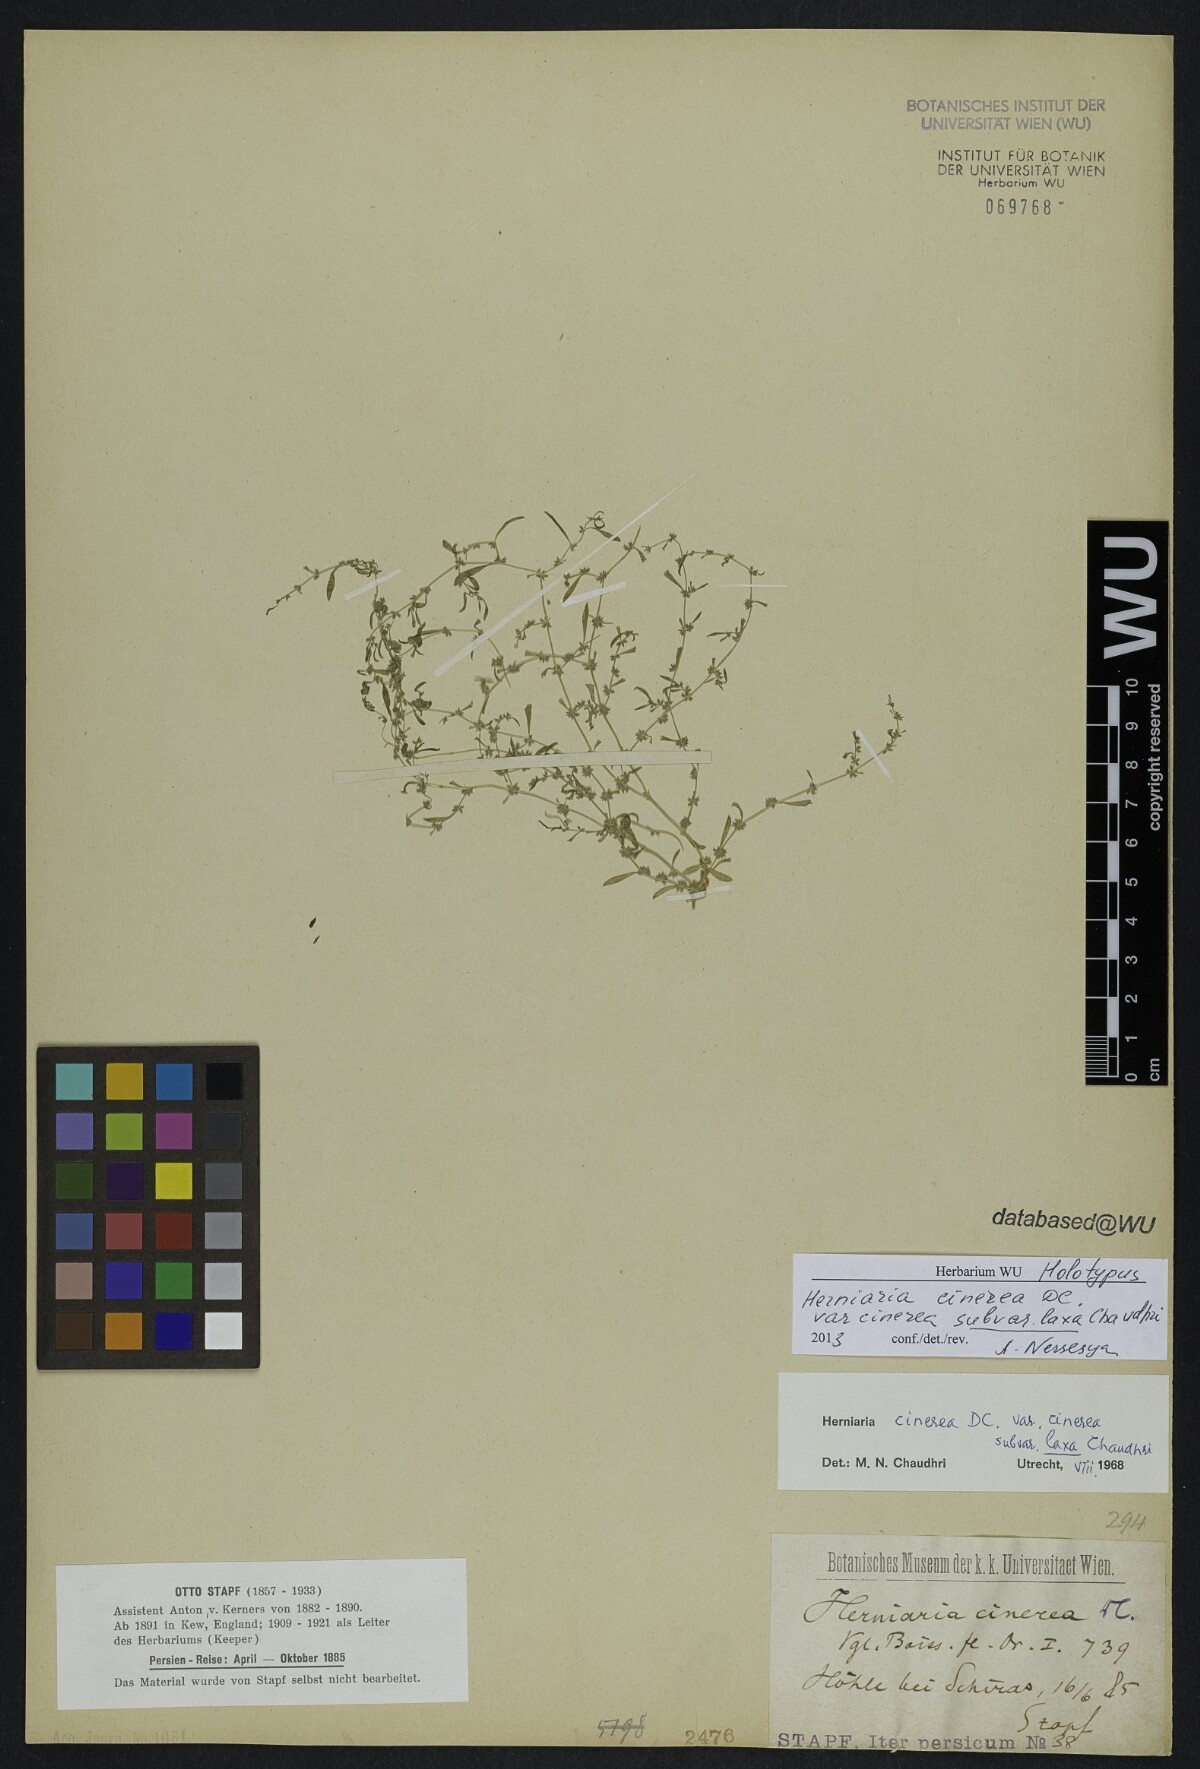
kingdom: Plantae
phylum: Tracheophyta
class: Magnoliopsida
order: Caryophyllales
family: Caryophyllaceae
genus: Herniaria
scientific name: Herniaria cinerea
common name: Hairy rupturewort
